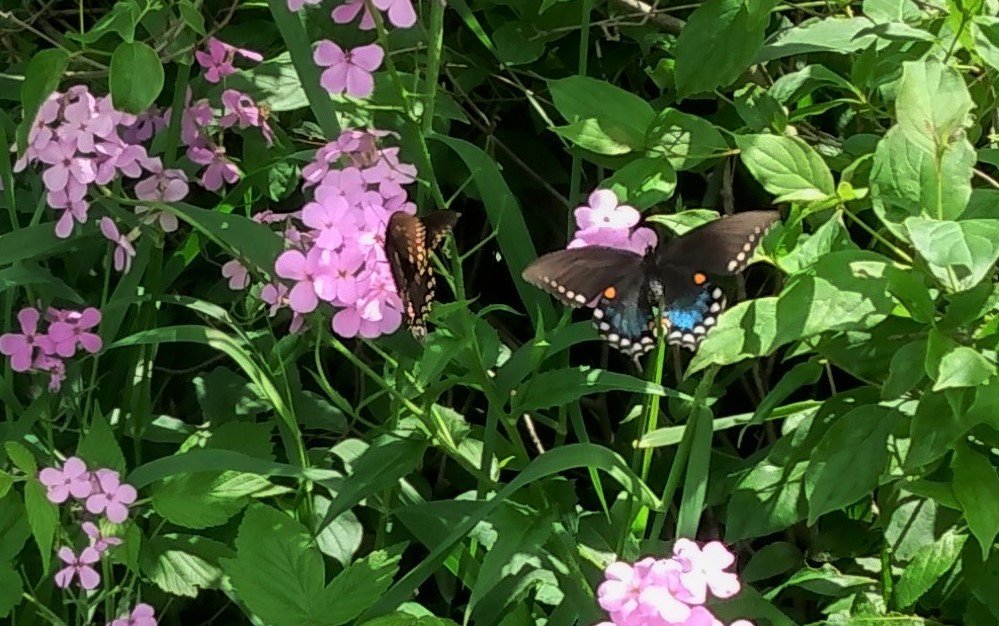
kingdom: Animalia
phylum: Arthropoda
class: Insecta
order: Lepidoptera
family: Papilionidae
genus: Pterourus
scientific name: Pterourus troilus
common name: Spicebush Swallowtail
